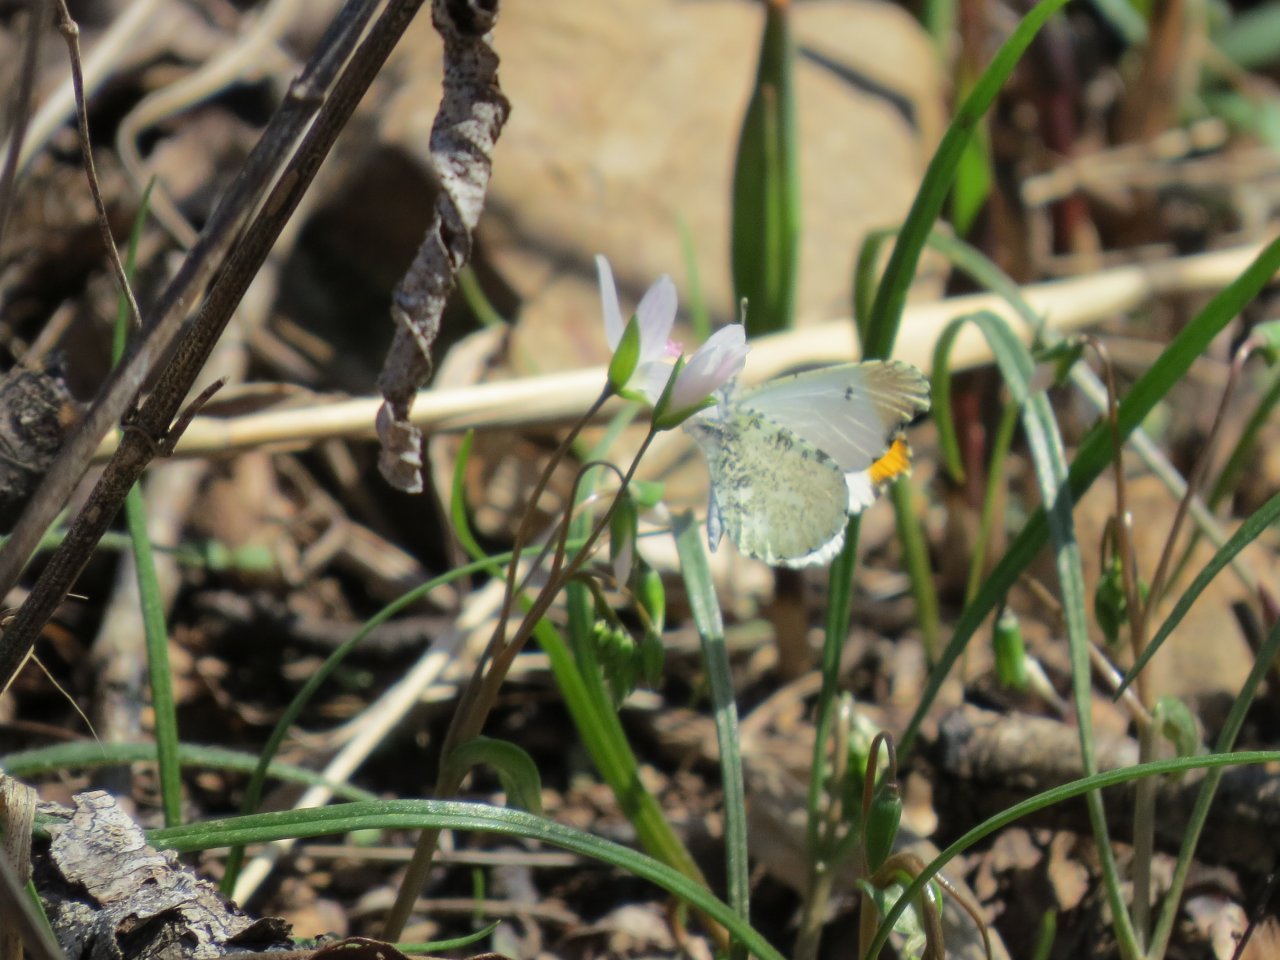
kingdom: Animalia
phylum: Arthropoda
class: Insecta
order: Lepidoptera
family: Pieridae
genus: Anthocharis
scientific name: Anthocharis midea
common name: Falcate Orangetip
